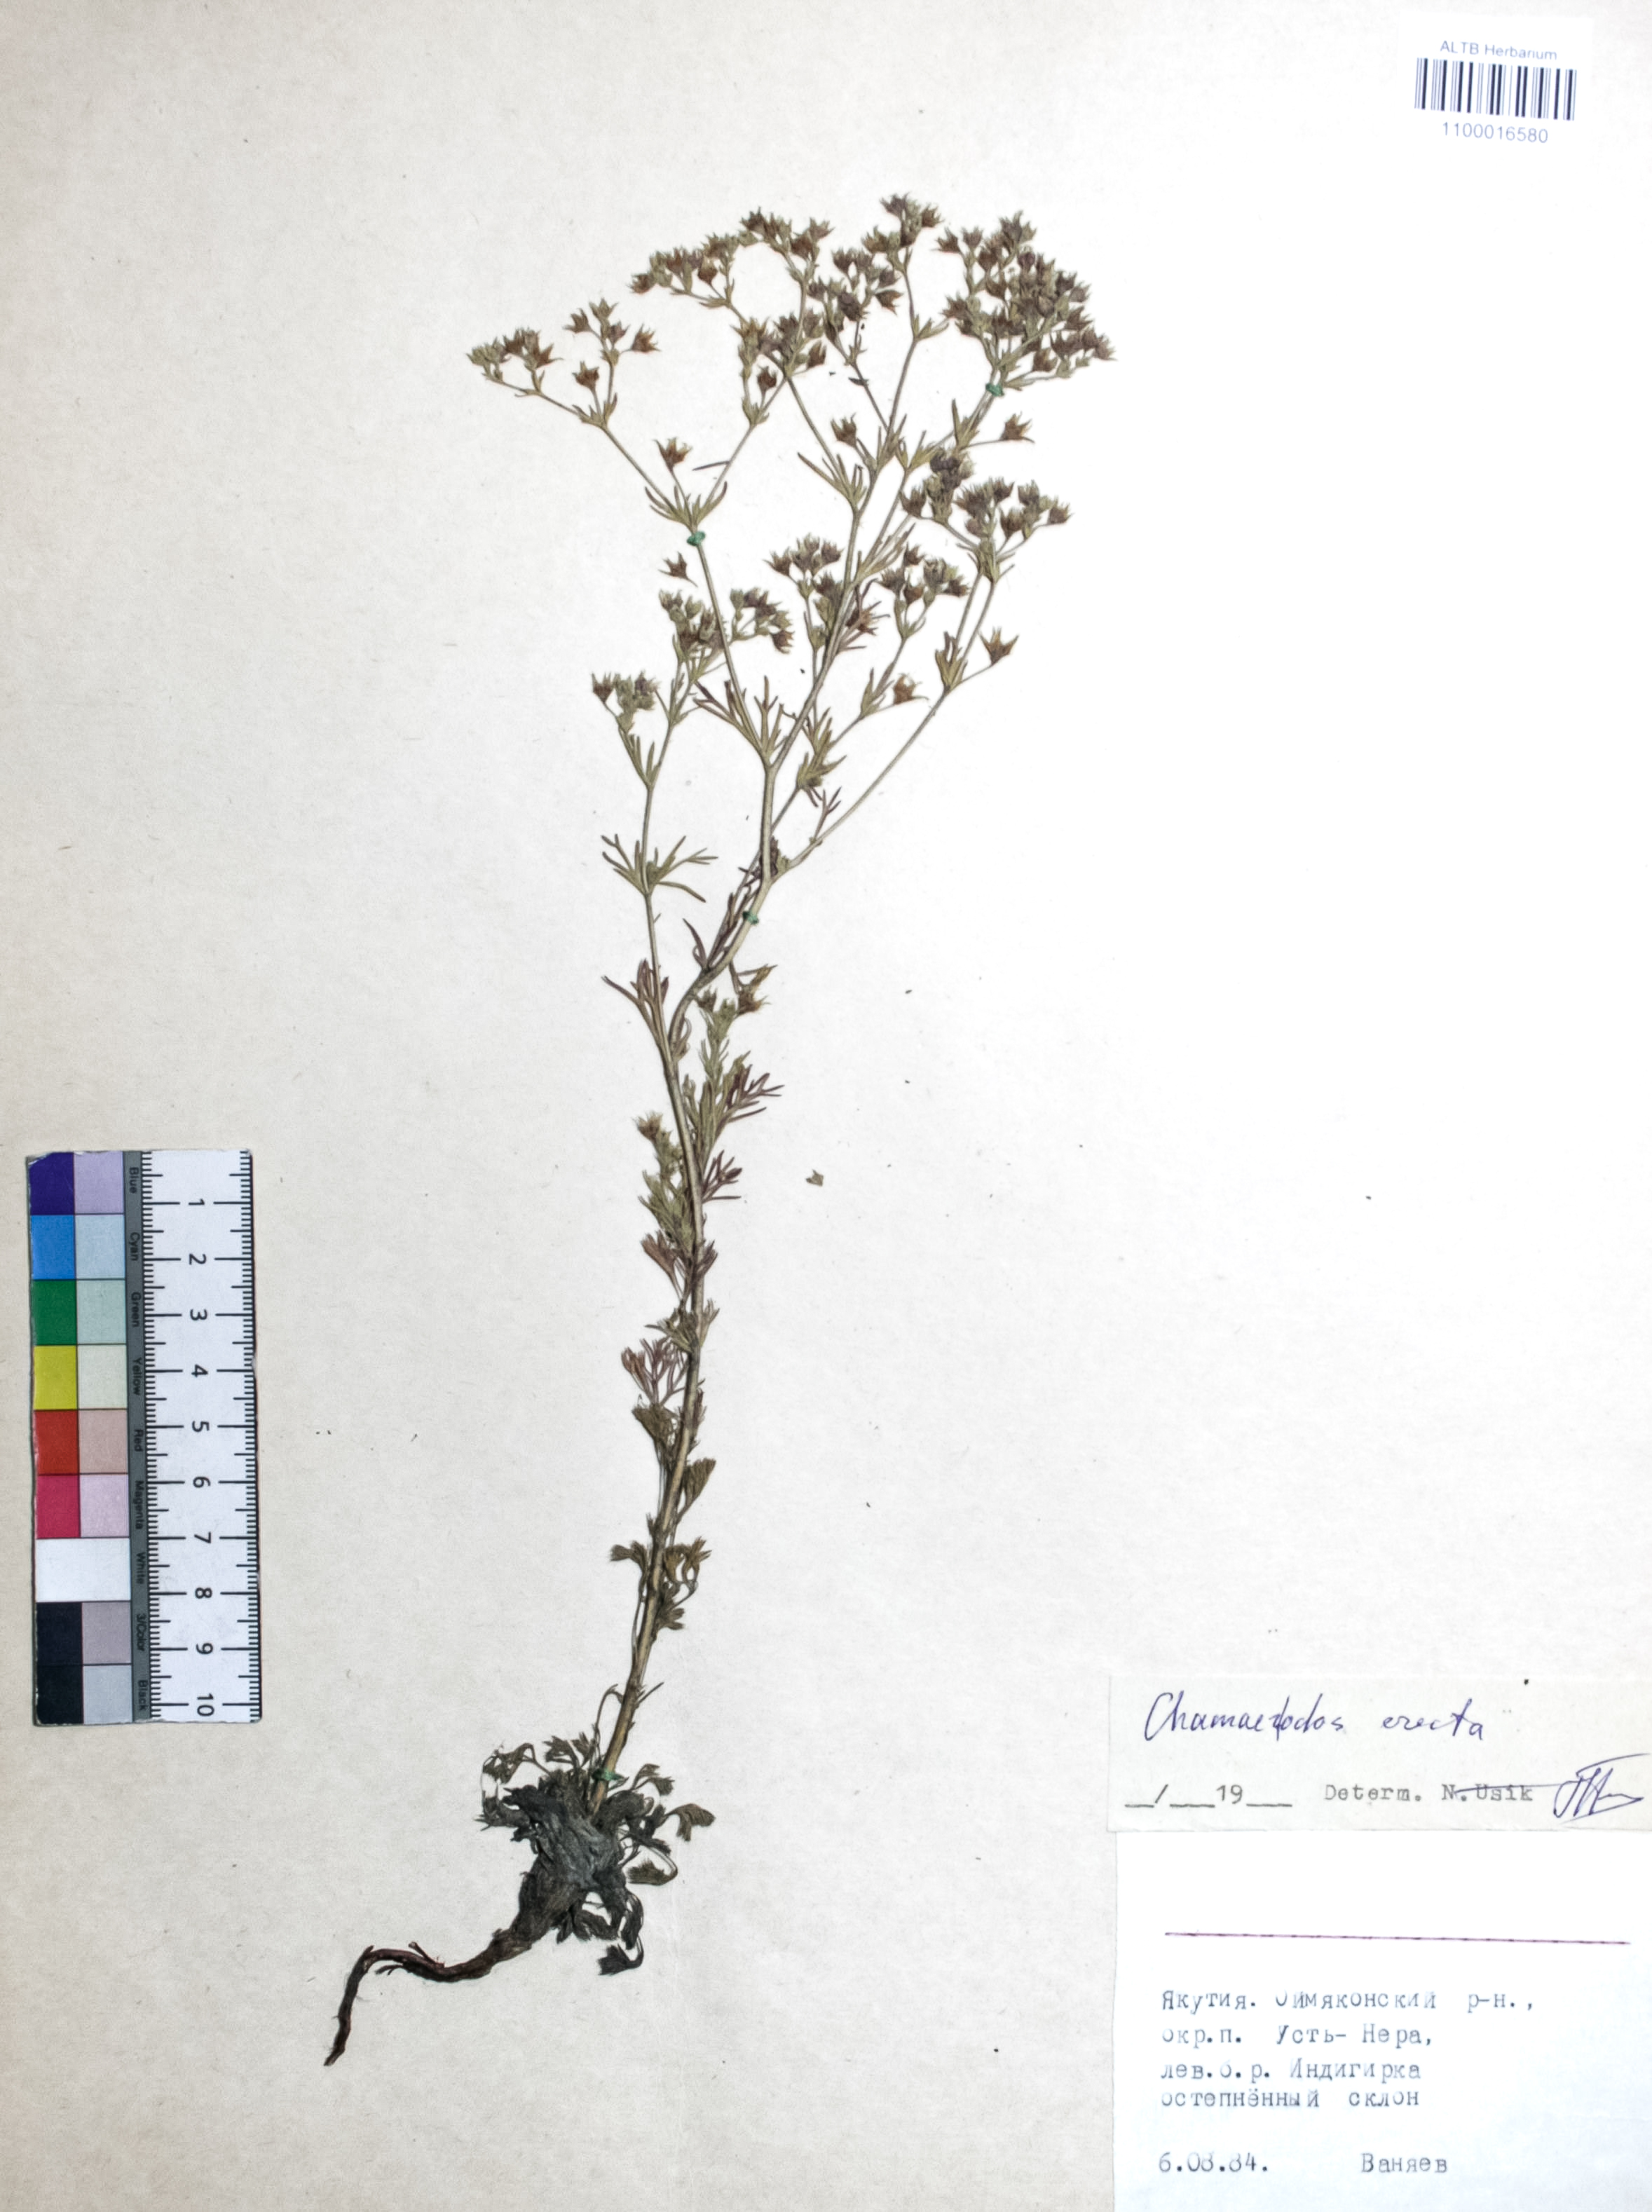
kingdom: Plantae
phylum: Tracheophyta
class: Magnoliopsida
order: Rosales
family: Rosaceae
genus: Chamaerhodos
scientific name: Chamaerhodos erecta
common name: American chamaerhodos
